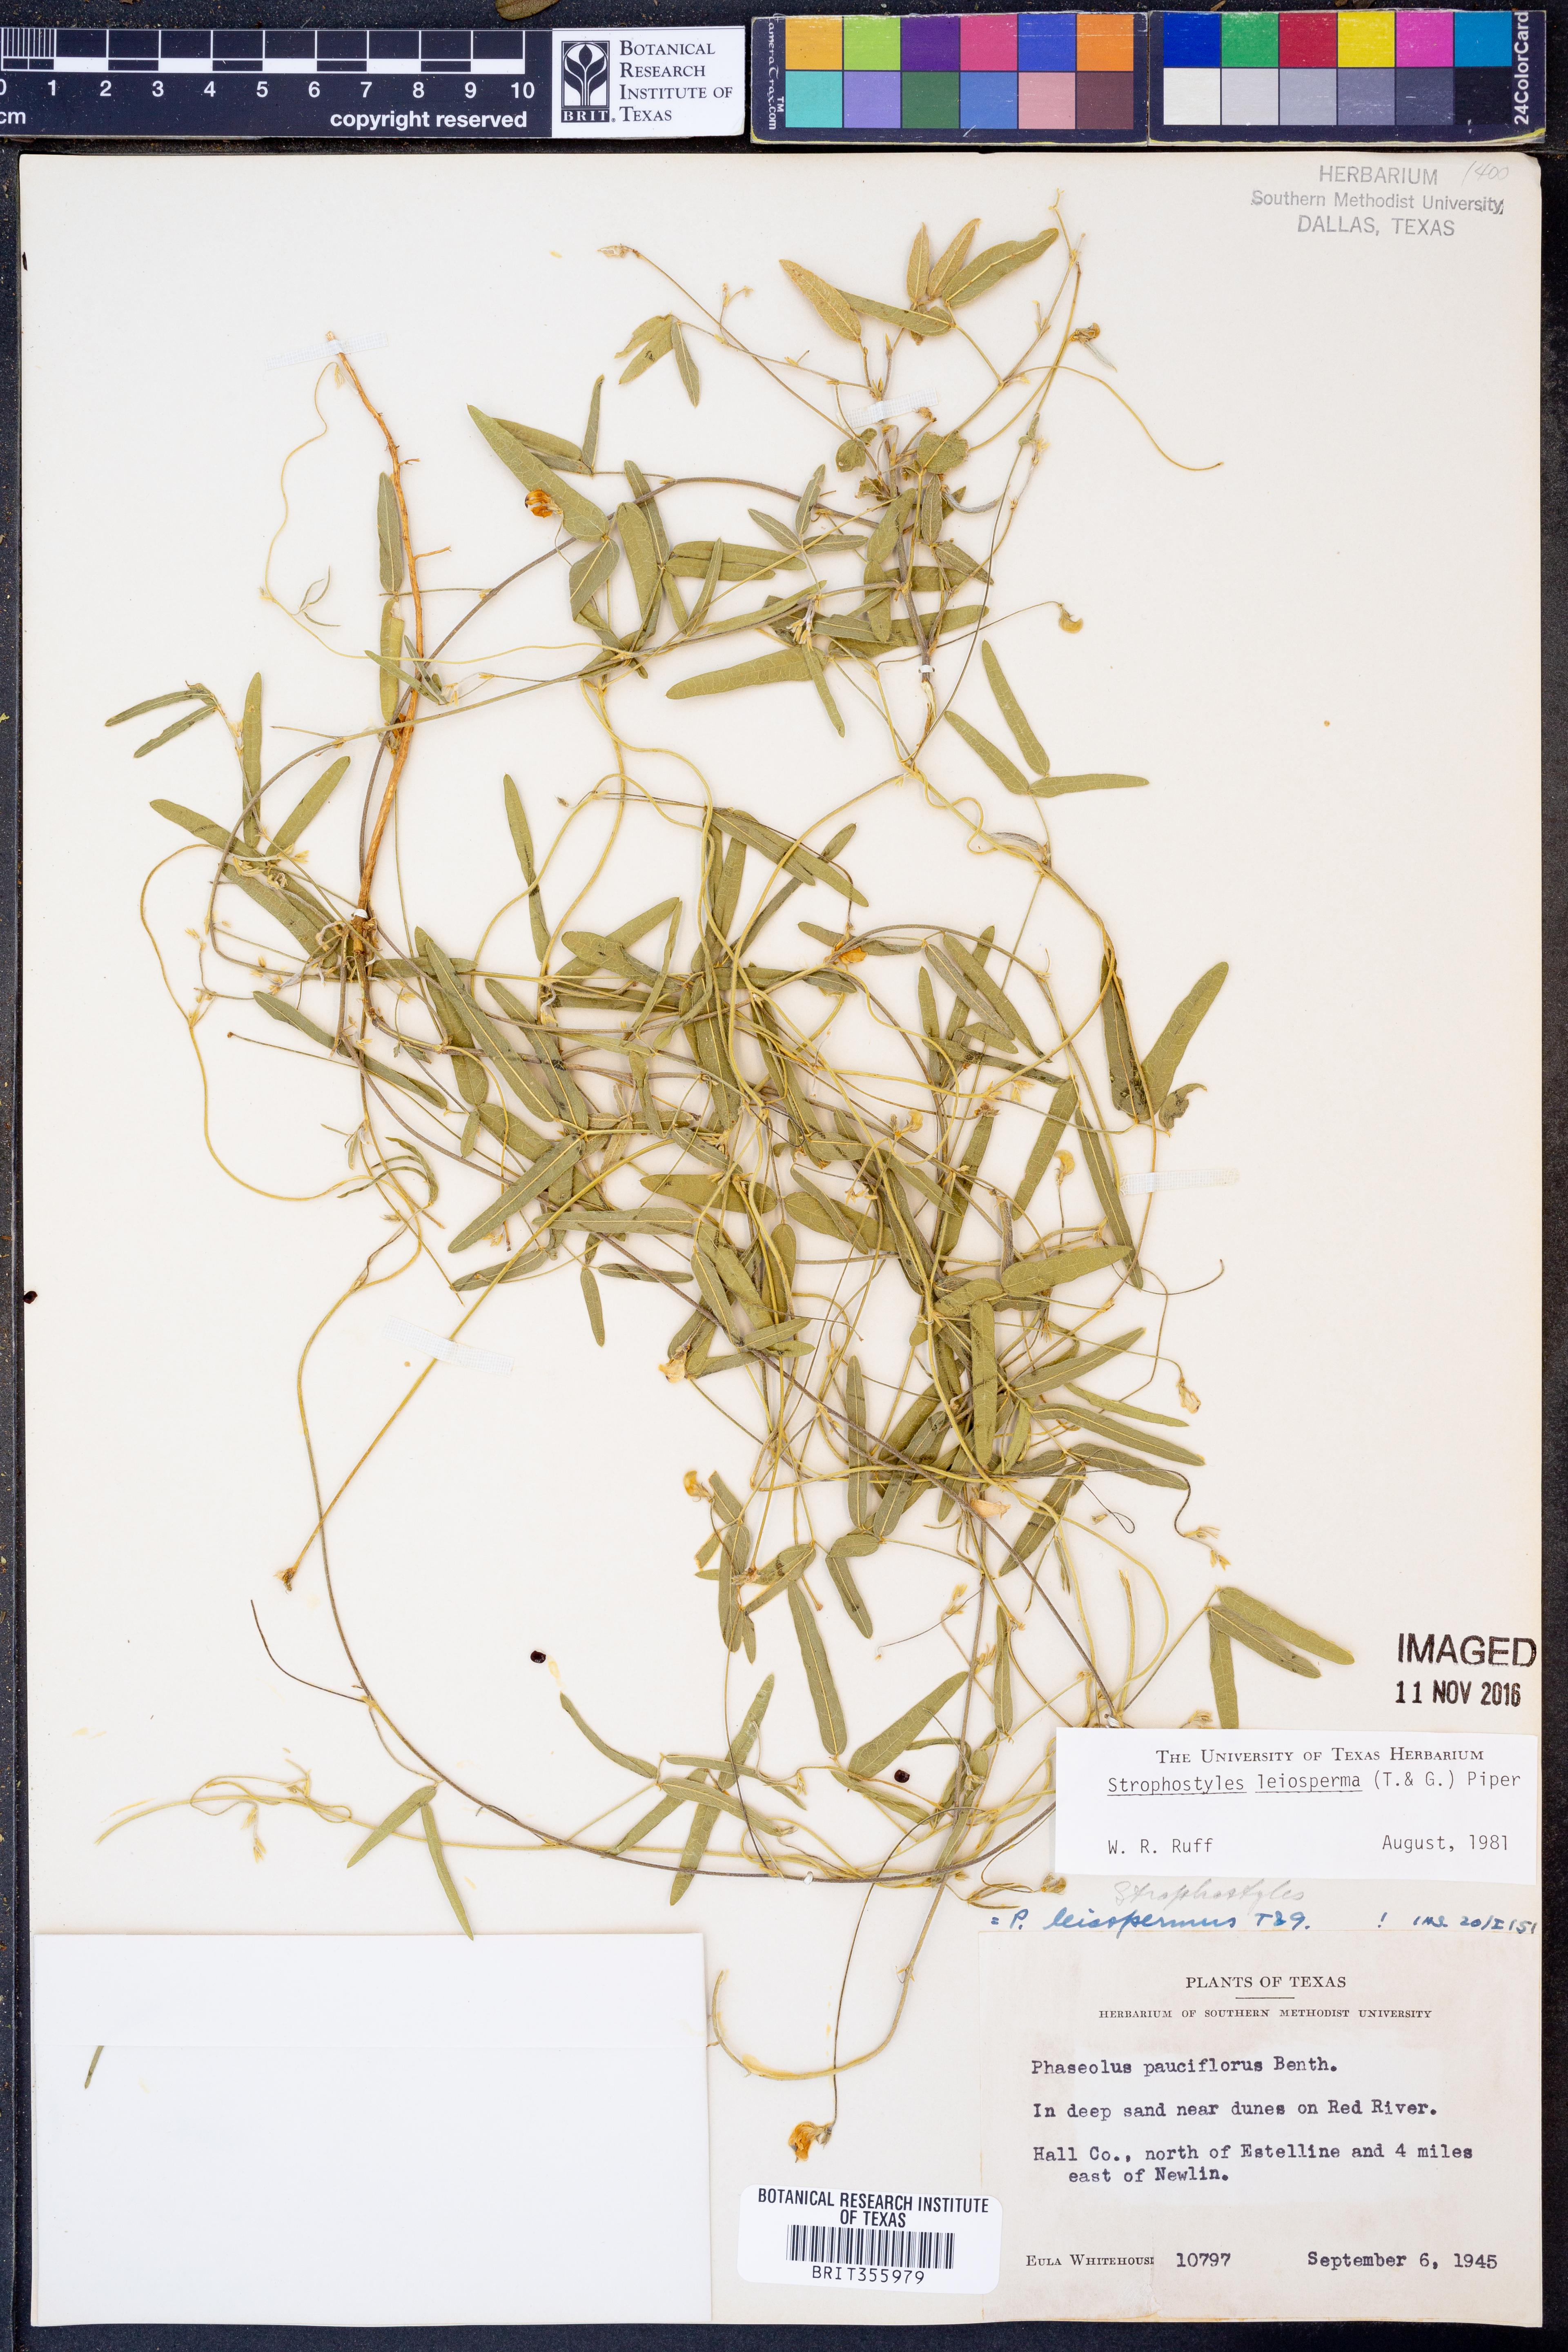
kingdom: Plantae
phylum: Tracheophyta
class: Magnoliopsida
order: Fabales
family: Fabaceae
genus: Strophostyles
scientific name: Strophostyles leiosperma
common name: Smooth-seed wild bean
